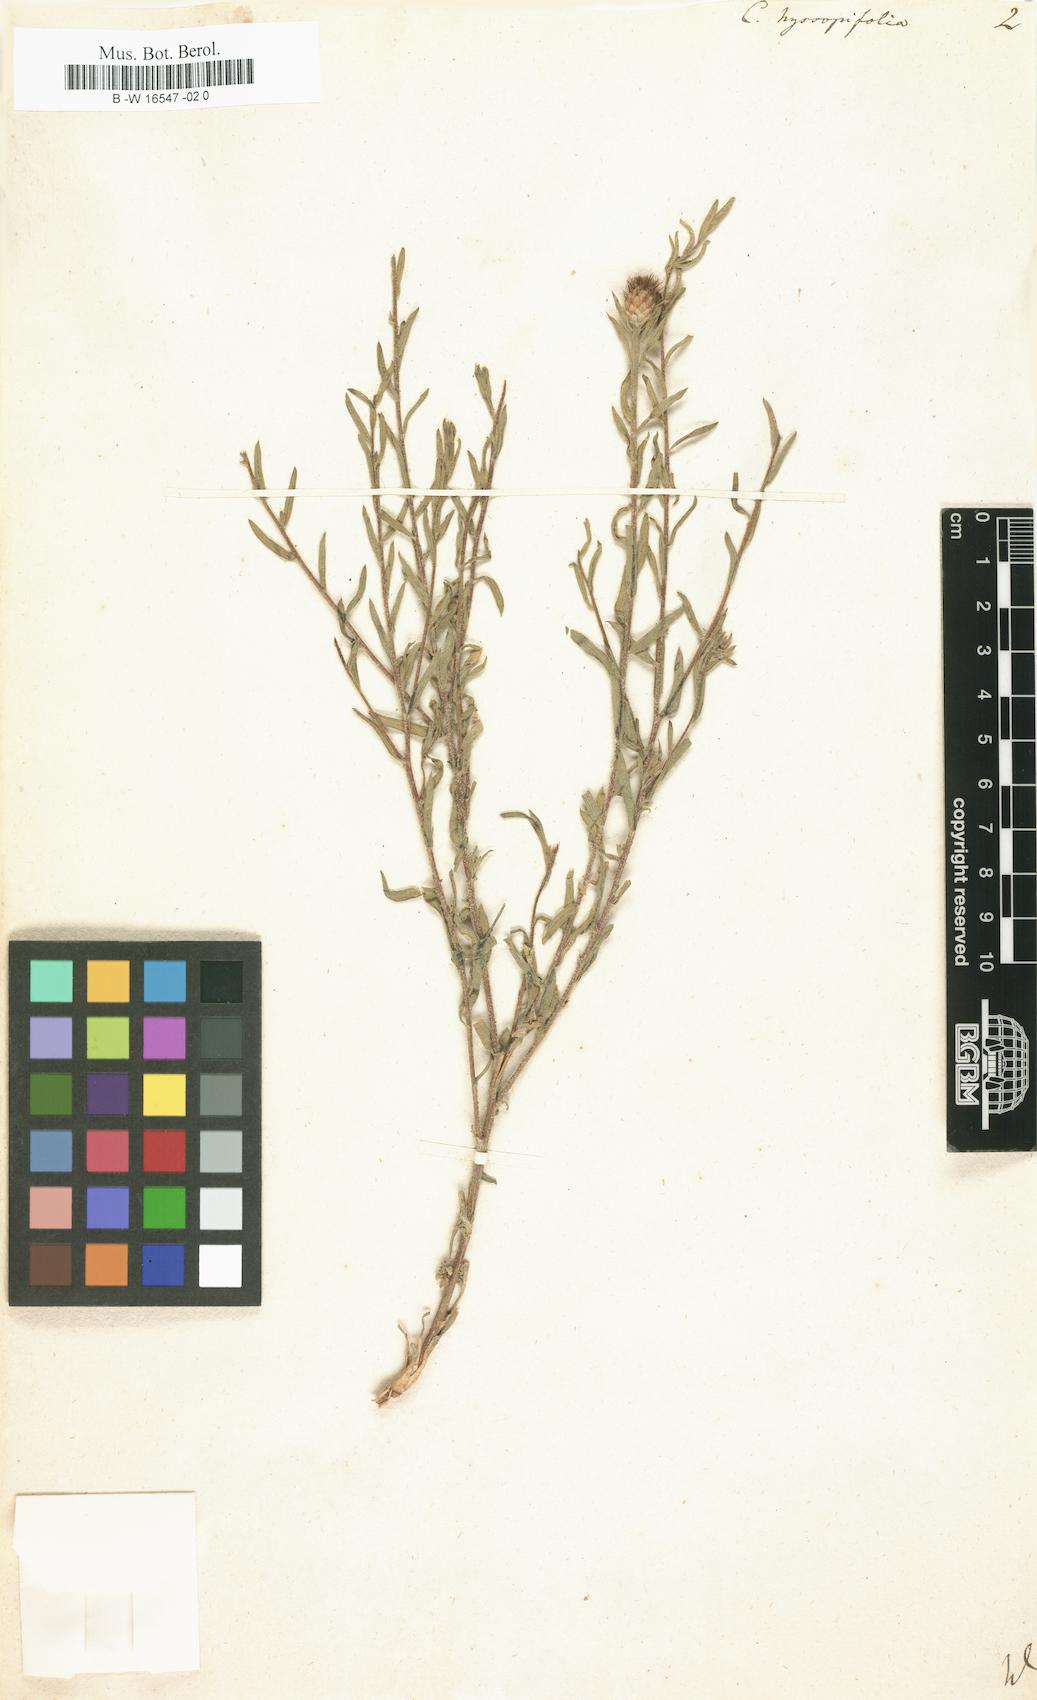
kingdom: Plantae
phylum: Tracheophyta
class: Magnoliopsida
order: Asterales
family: Asteraceae
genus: Centaurea
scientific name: Centaurea hyssopifolia
